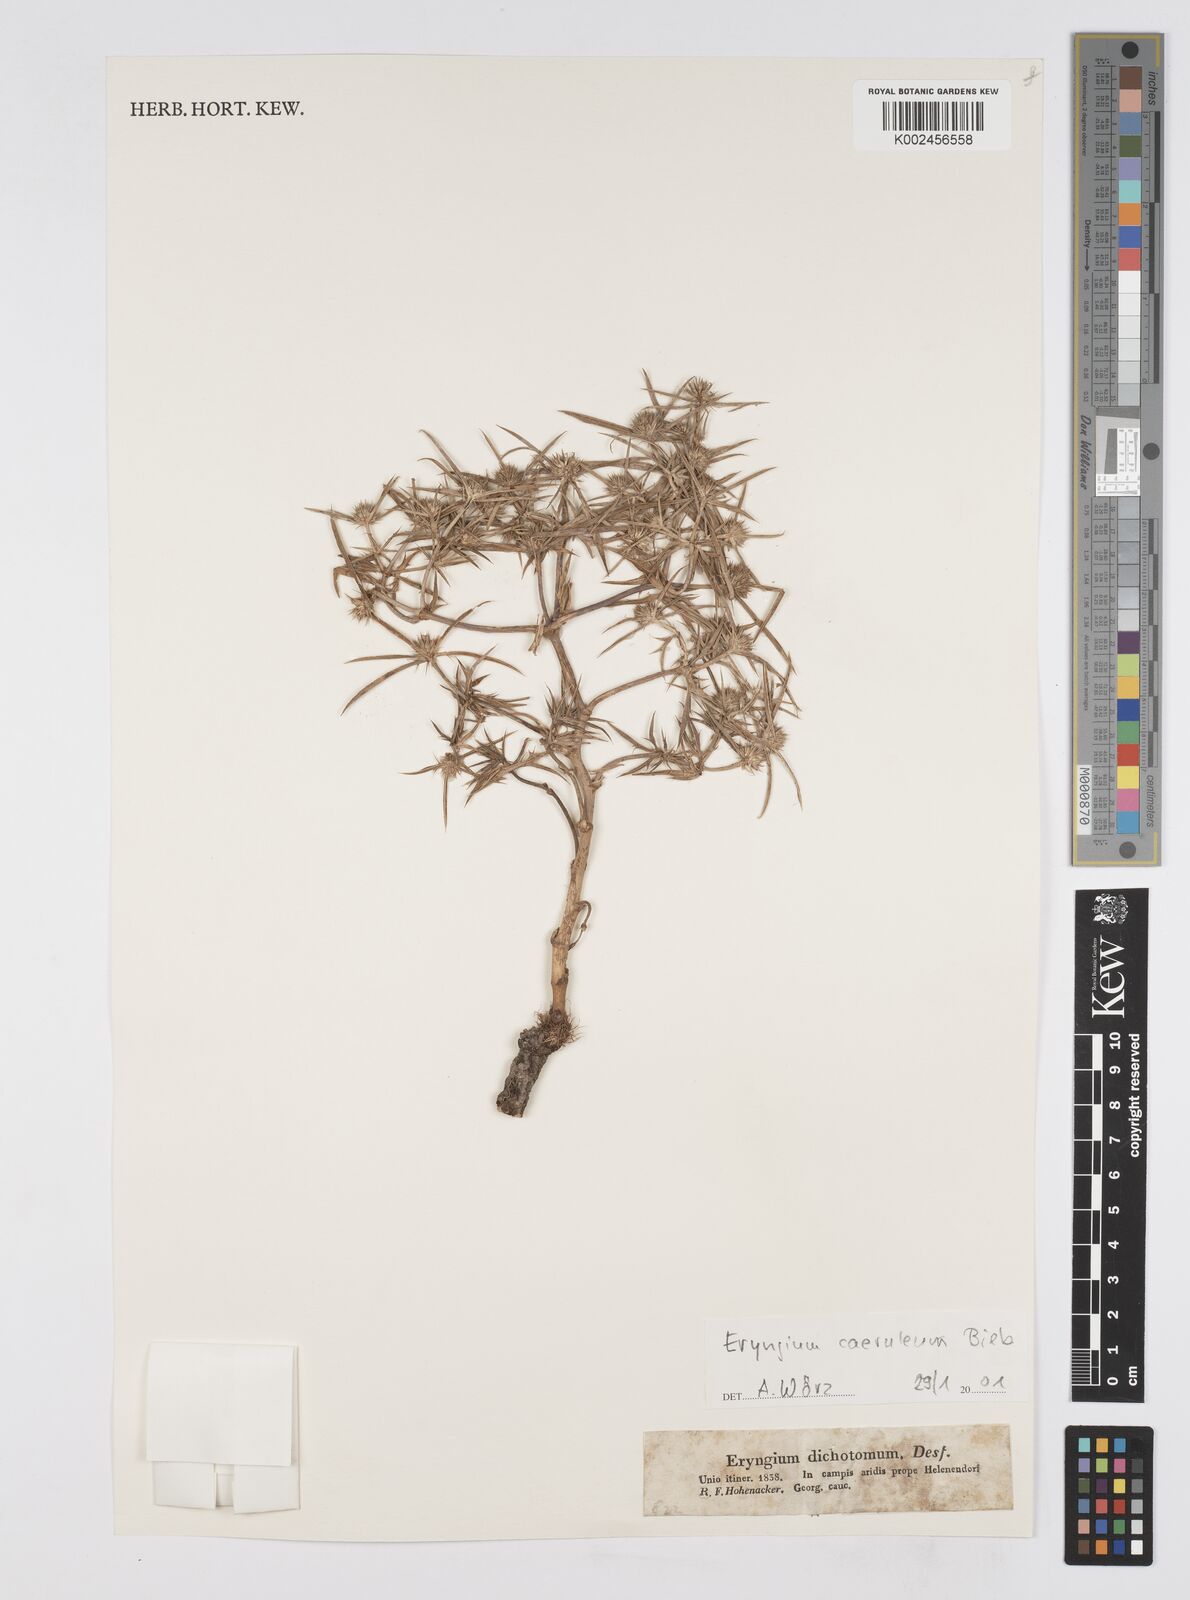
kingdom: Plantae
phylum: Tracheophyta
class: Magnoliopsida
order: Apiales
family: Apiaceae
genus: Eryngium
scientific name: Eryngium caeruleum
